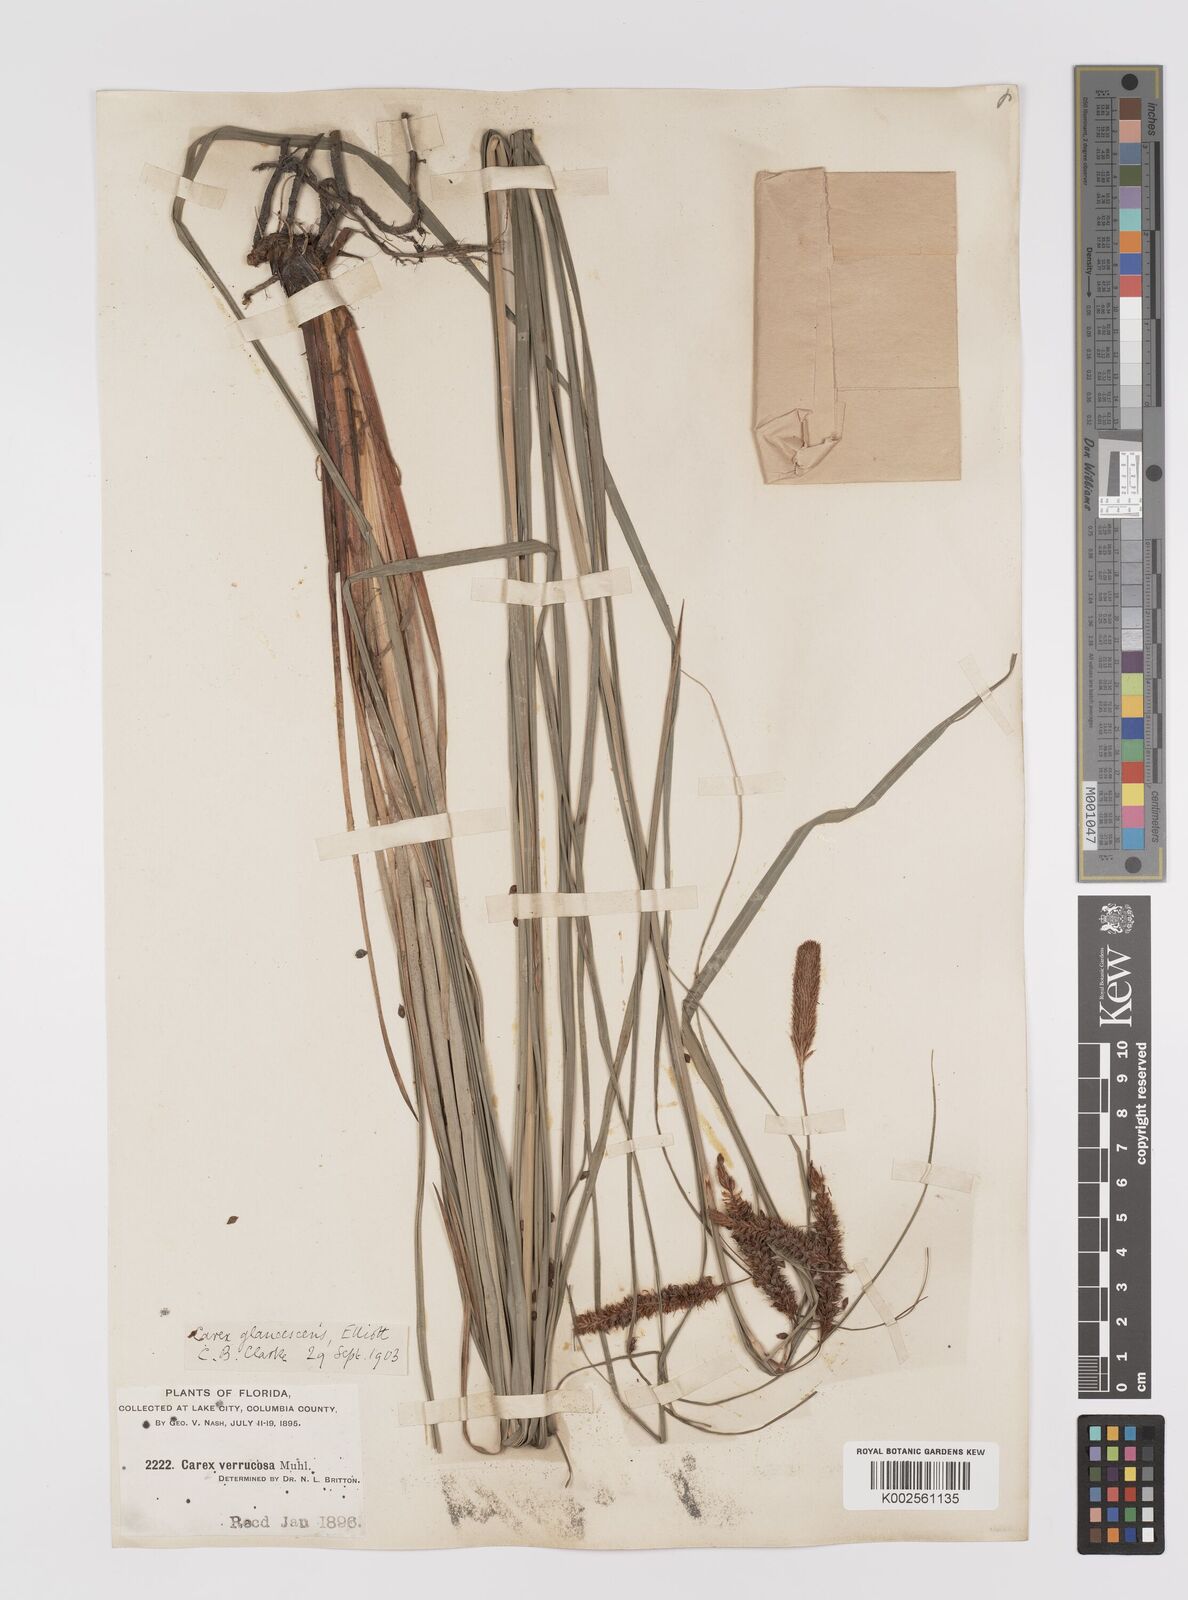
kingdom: Plantae
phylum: Tracheophyta
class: Liliopsida
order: Poales
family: Cyperaceae
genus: Carex
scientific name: Carex glaucescens
